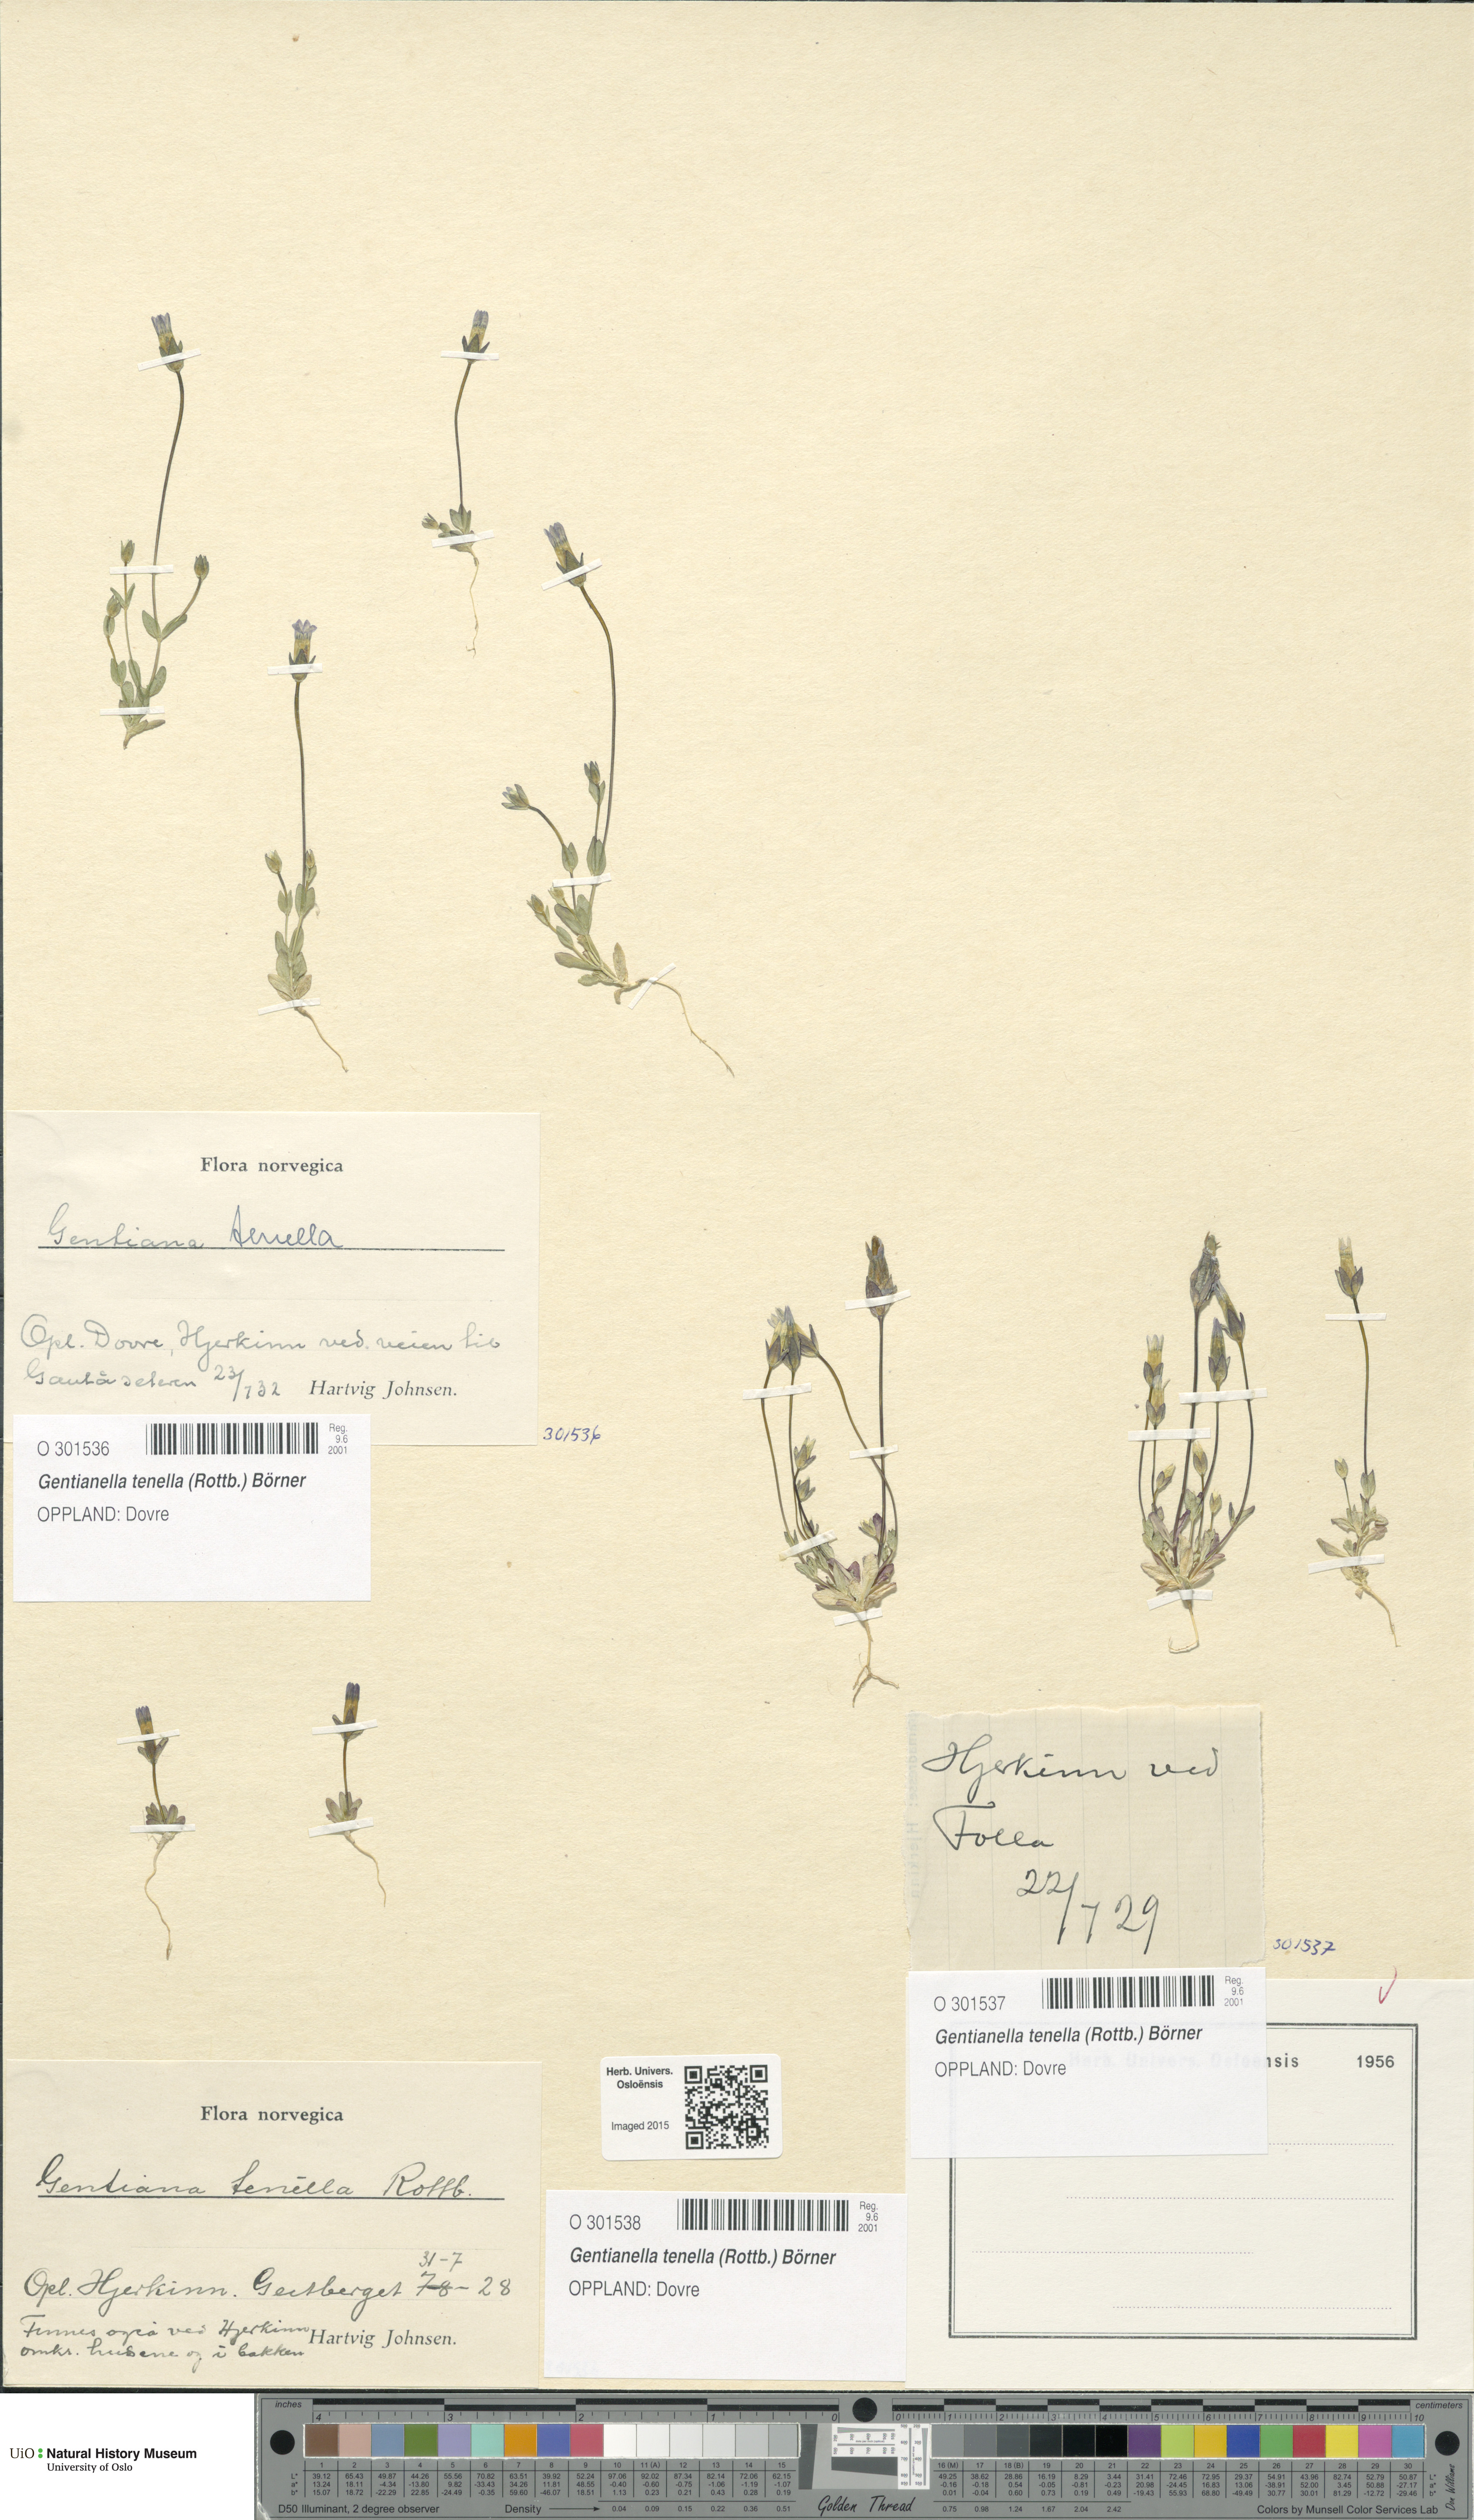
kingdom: Plantae
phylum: Tracheophyta
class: Magnoliopsida
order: Gentianales
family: Gentianaceae
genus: Comastoma
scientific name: Comastoma tenellum
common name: Dane's dwarf gentian
